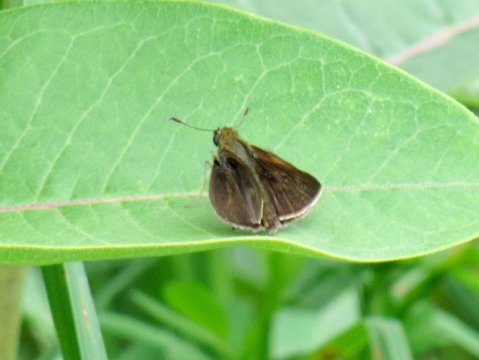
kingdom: Animalia
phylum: Arthropoda
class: Insecta
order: Lepidoptera
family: Hesperiidae
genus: Euphyes
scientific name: Euphyes vestris
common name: Dun Skipper
